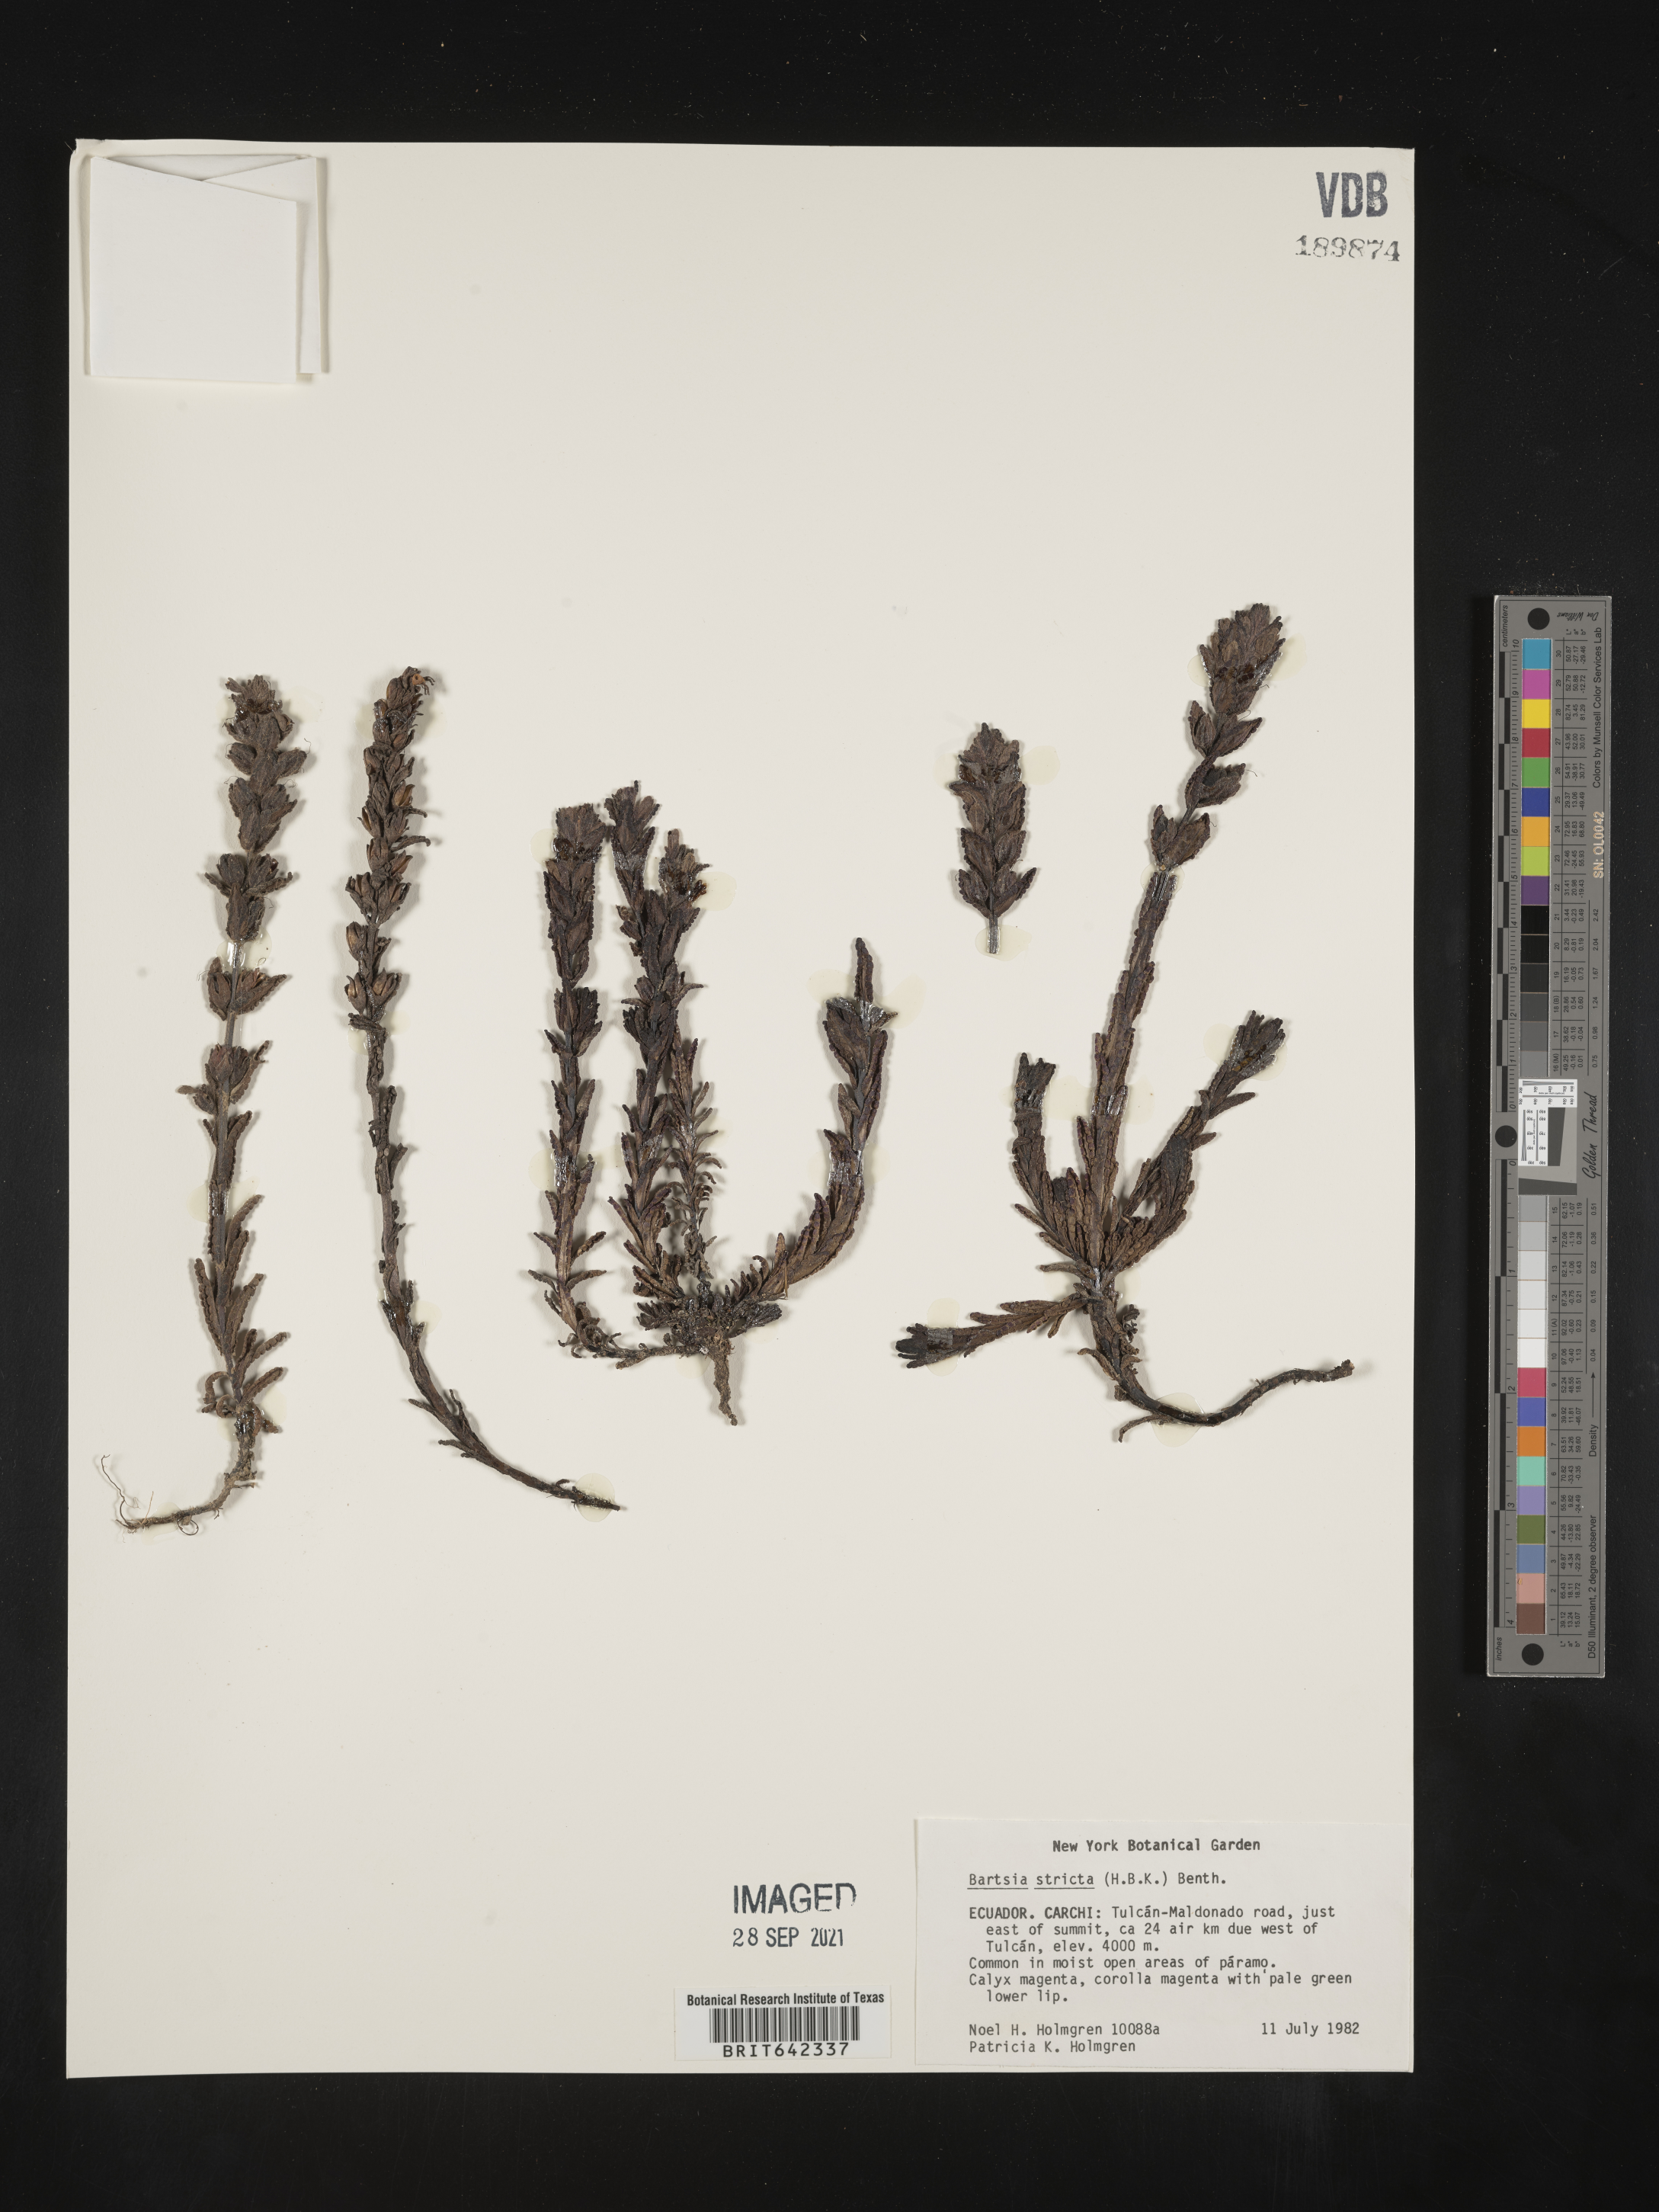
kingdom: Plantae
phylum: Tracheophyta
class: Magnoliopsida
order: Lamiales
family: Orobanchaceae
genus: Bartsia
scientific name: Bartsia
